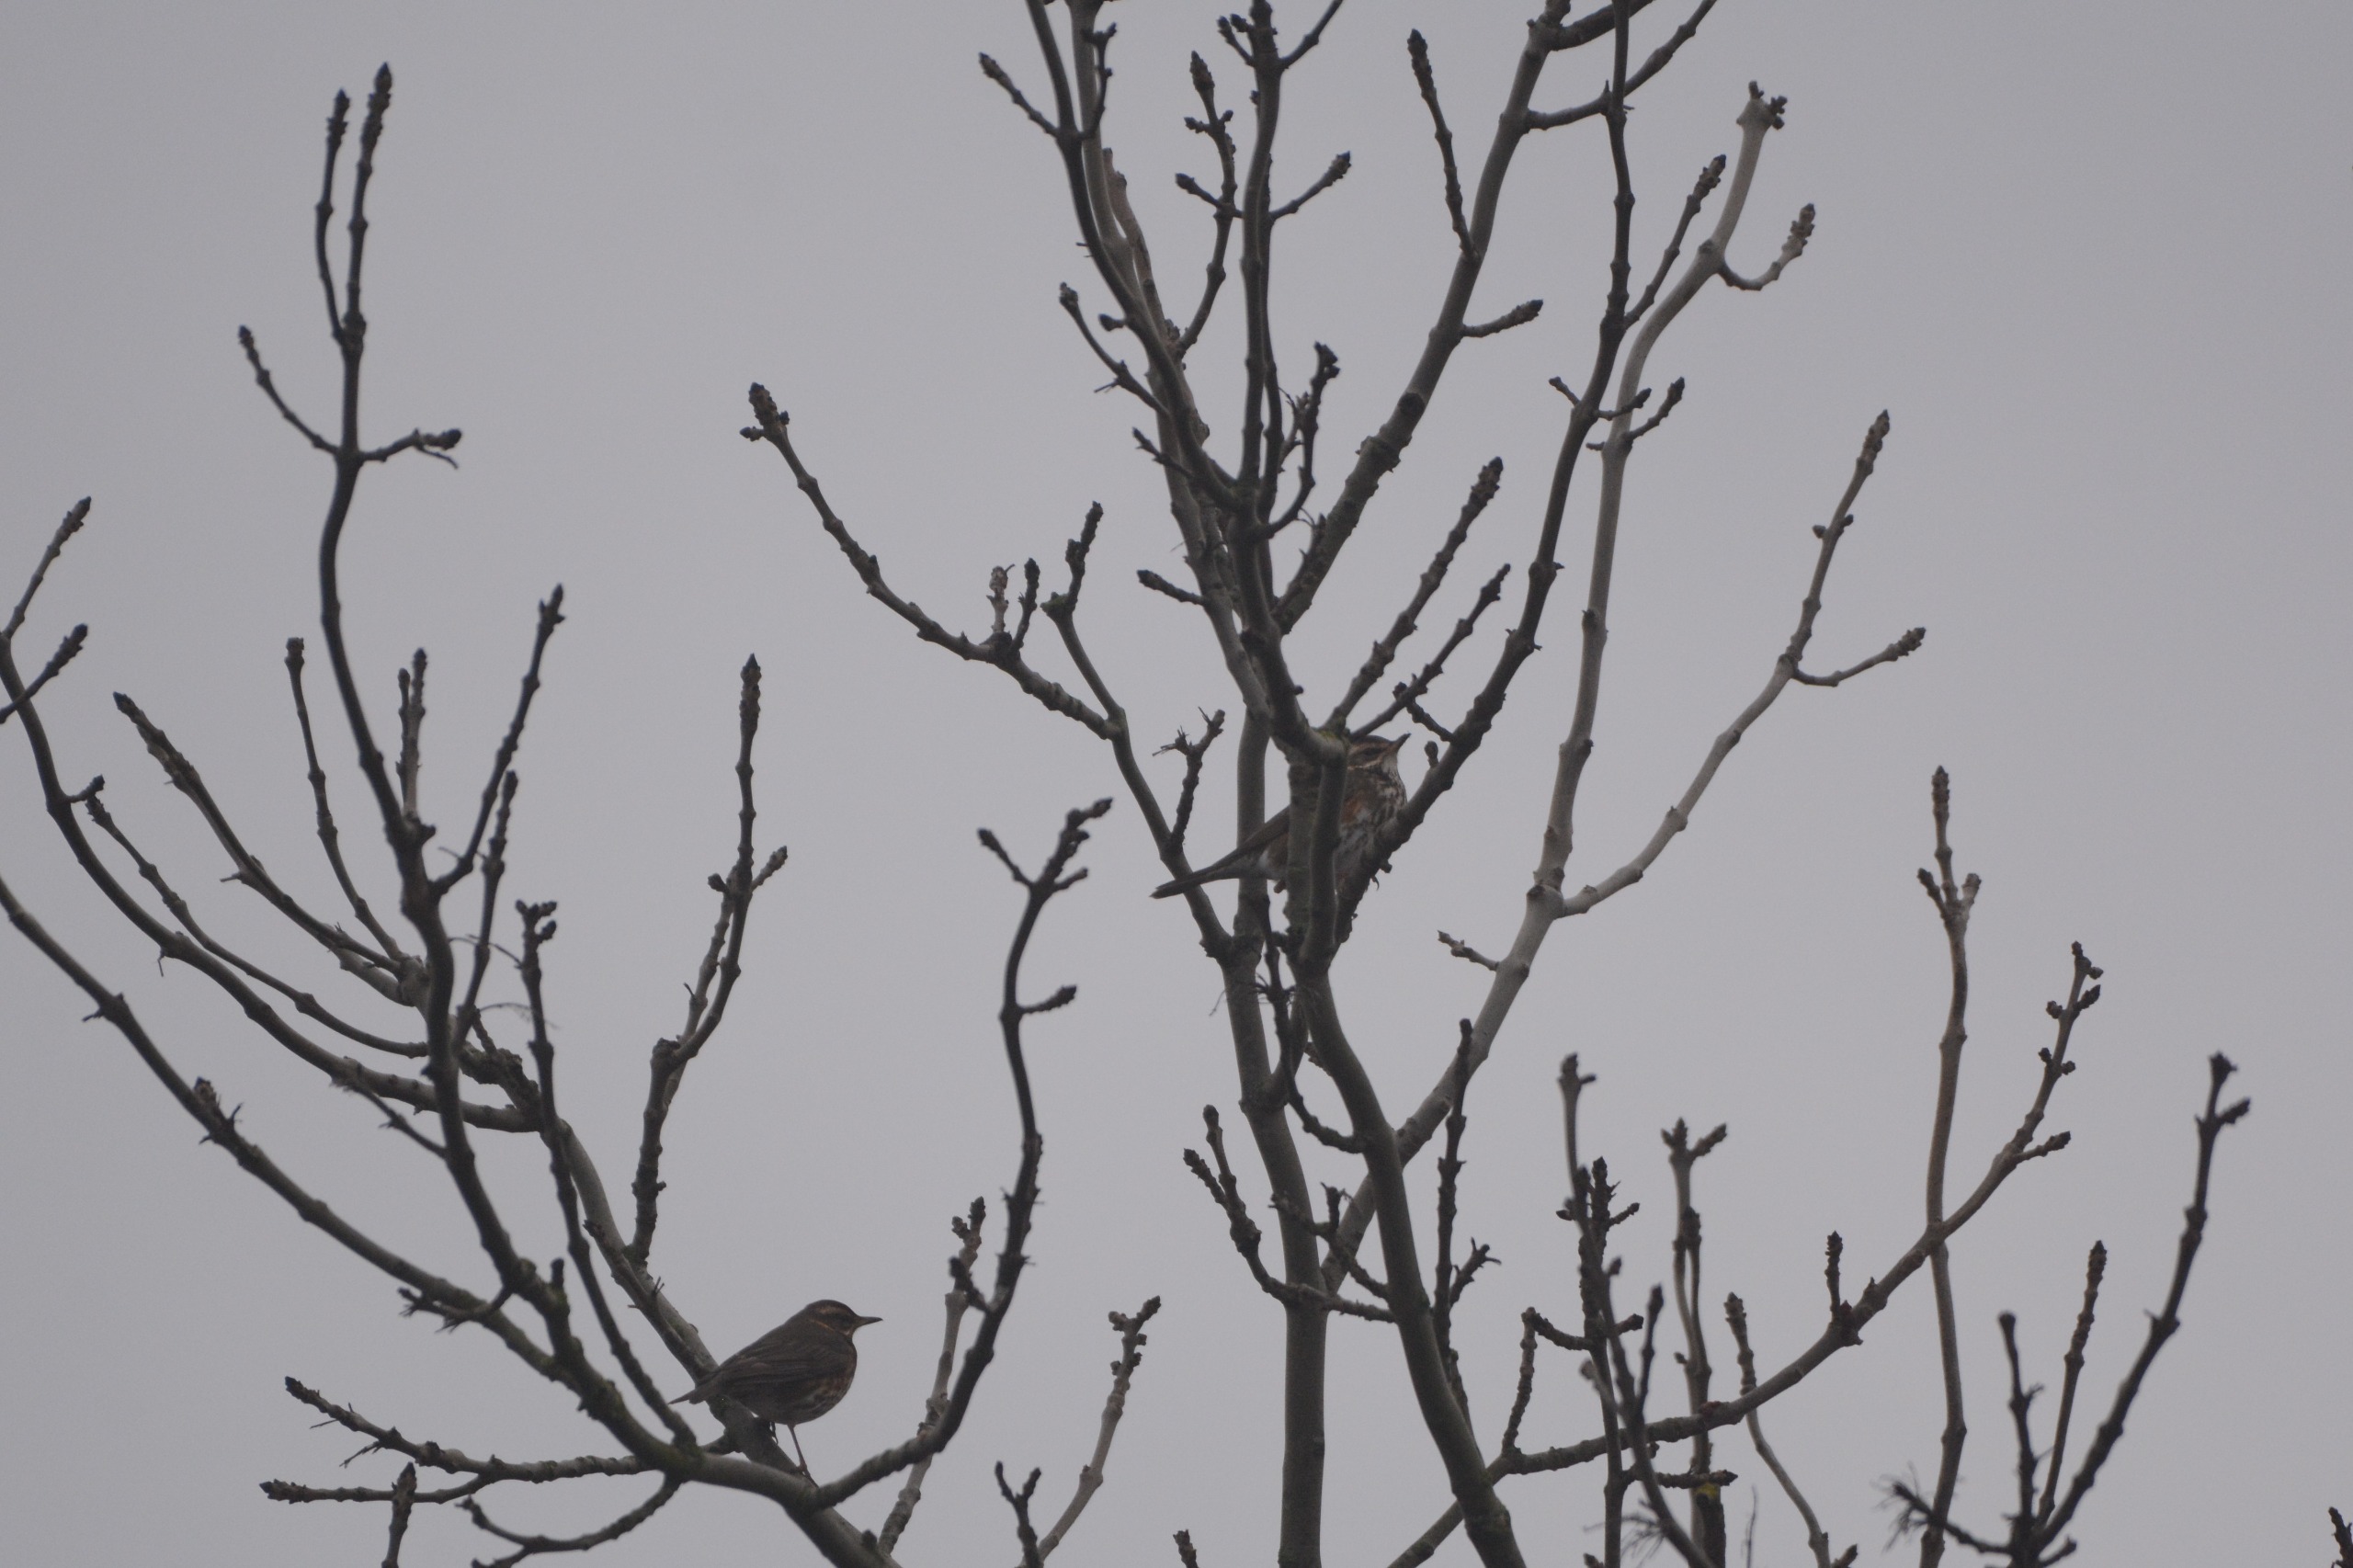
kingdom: Animalia
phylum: Chordata
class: Aves
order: Passeriformes
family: Turdidae
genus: Turdus
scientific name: Turdus iliacus
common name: Vindrossel
